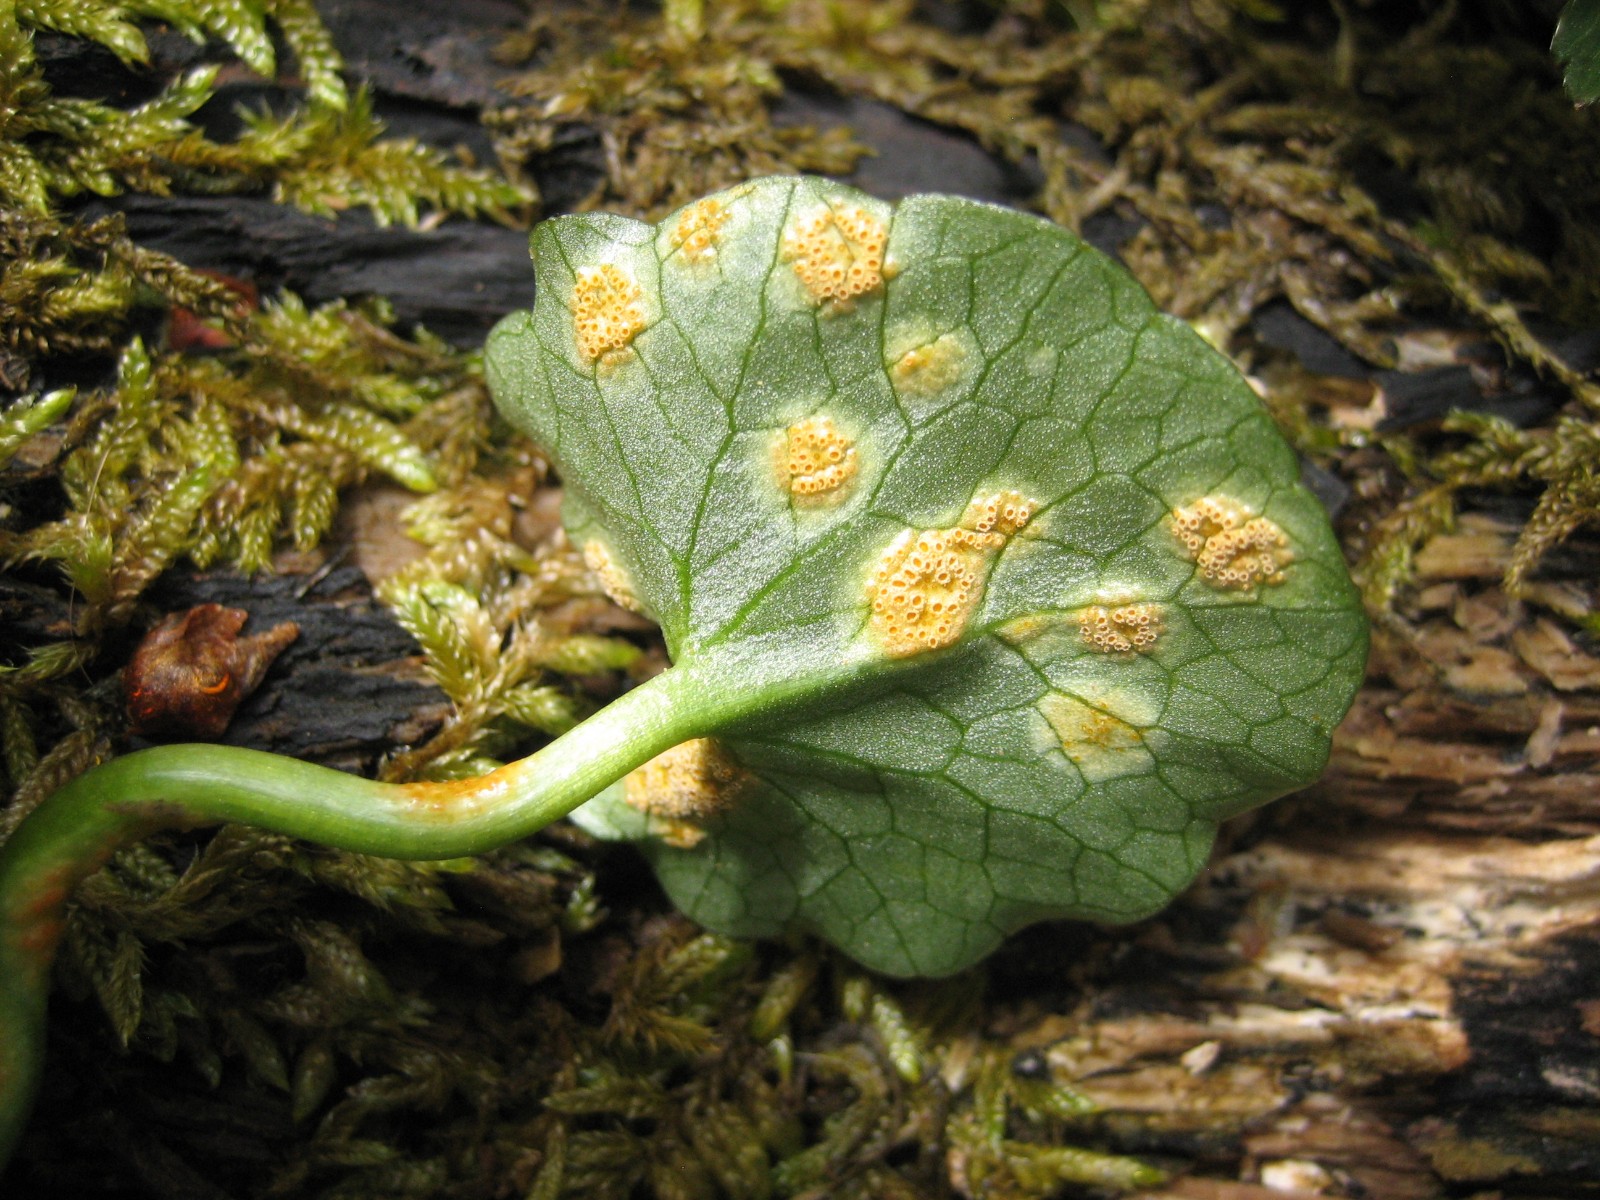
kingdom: Fungi
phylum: Basidiomycota
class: Pucciniomycetes
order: Pucciniales
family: Pucciniaceae
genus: Uromyces
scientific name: Uromyces dactylidis
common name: ranunkel-encellerust
